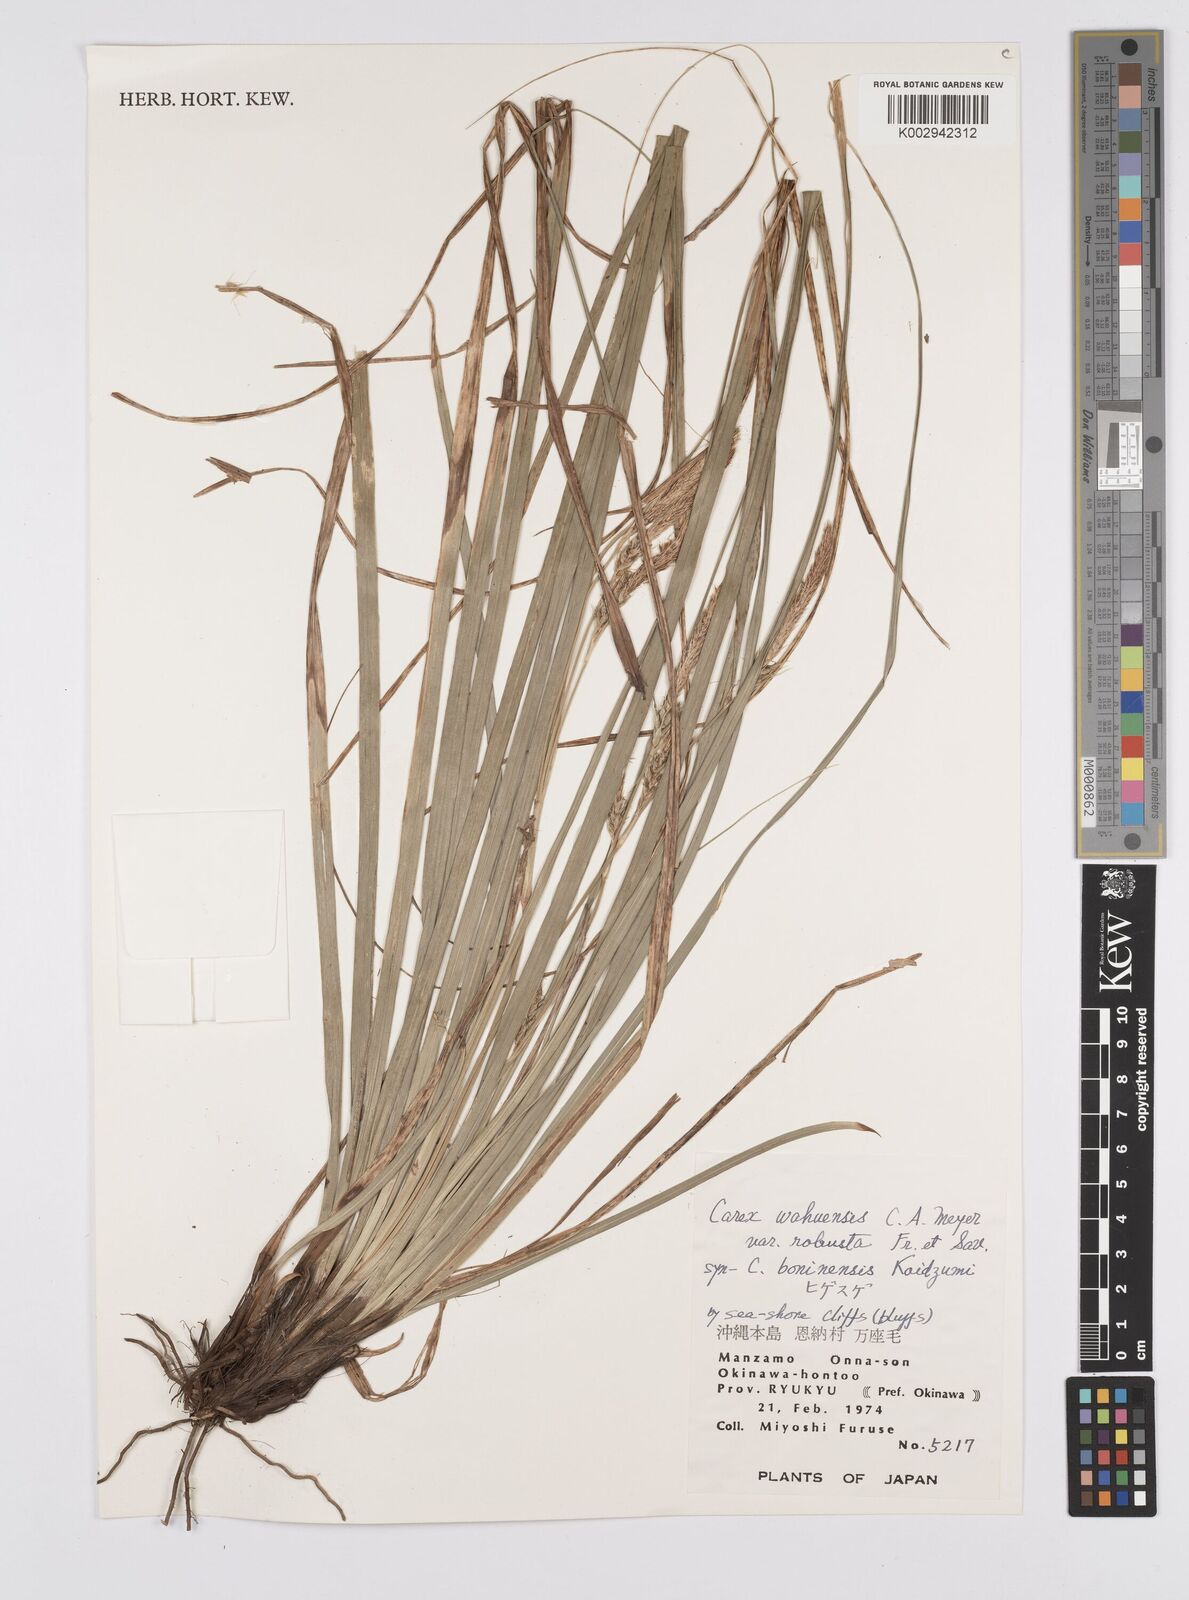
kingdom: Plantae
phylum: Tracheophyta
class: Liliopsida
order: Poales
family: Cyperaceae
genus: Carex
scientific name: Carex wahuensis
